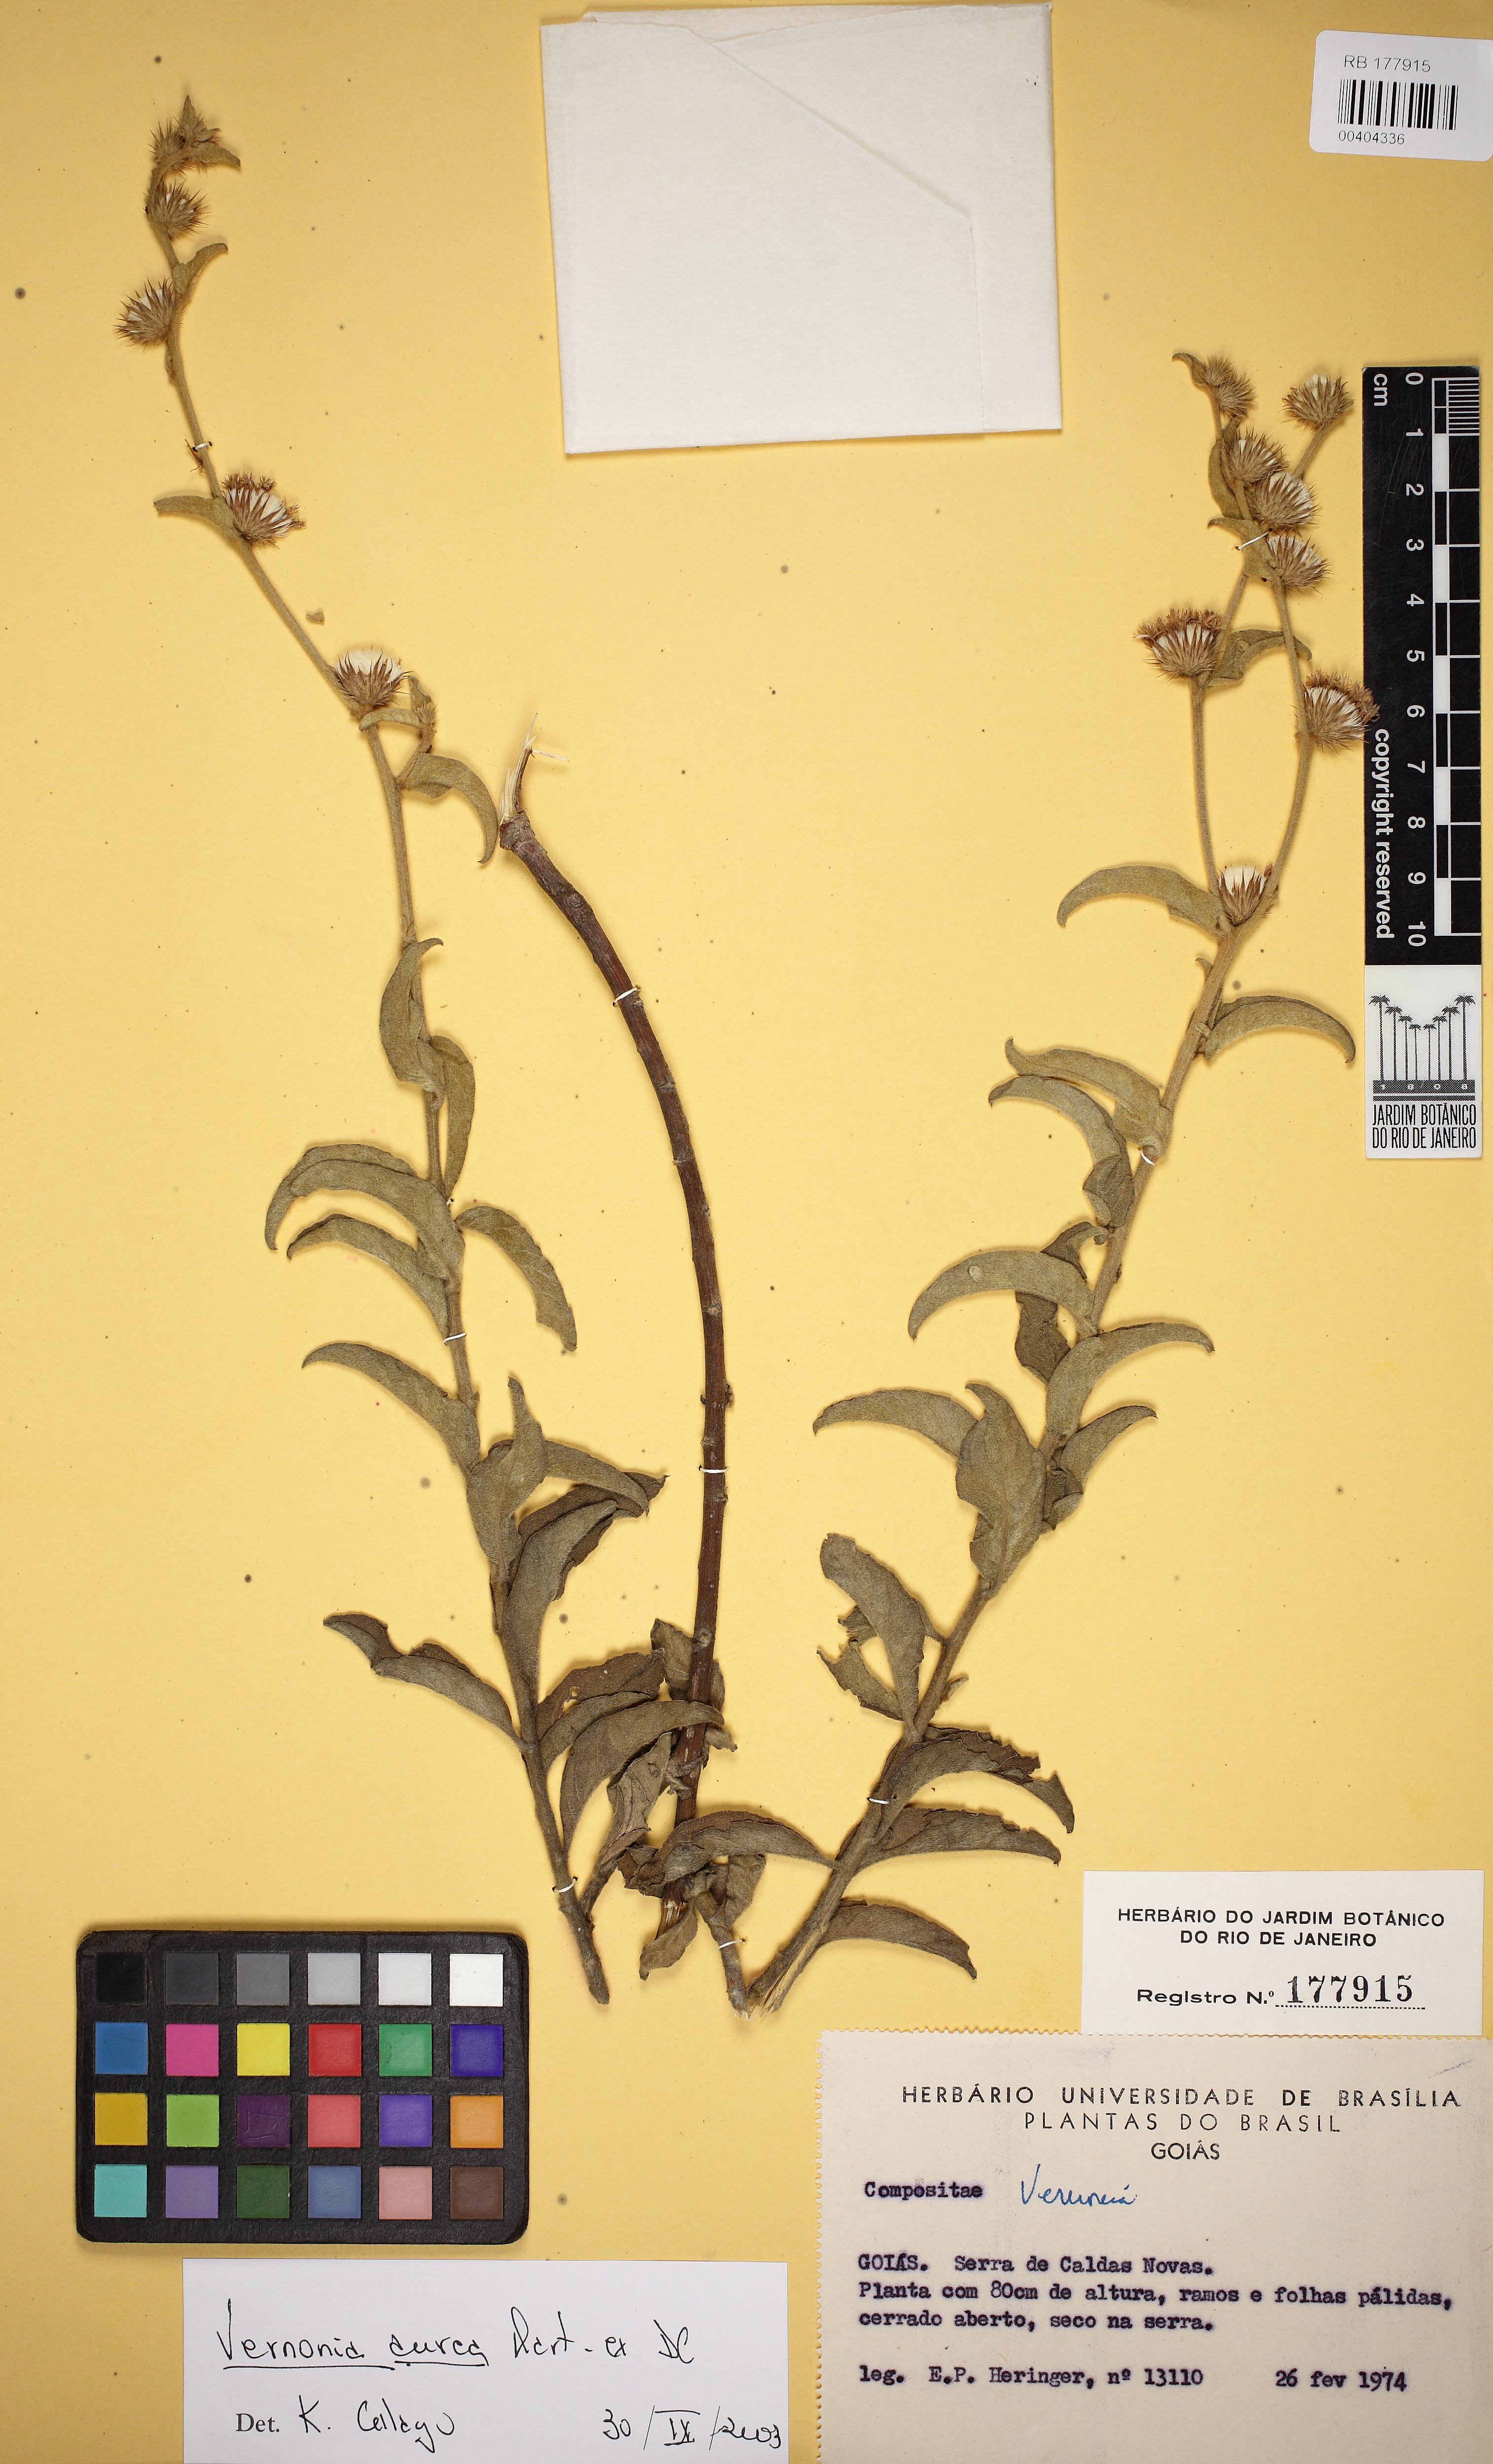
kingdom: Plantae
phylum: Tracheophyta
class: Magnoliopsida
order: Asterales
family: Asteraceae
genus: Lepidaploa
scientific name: Lepidaploa aurea
